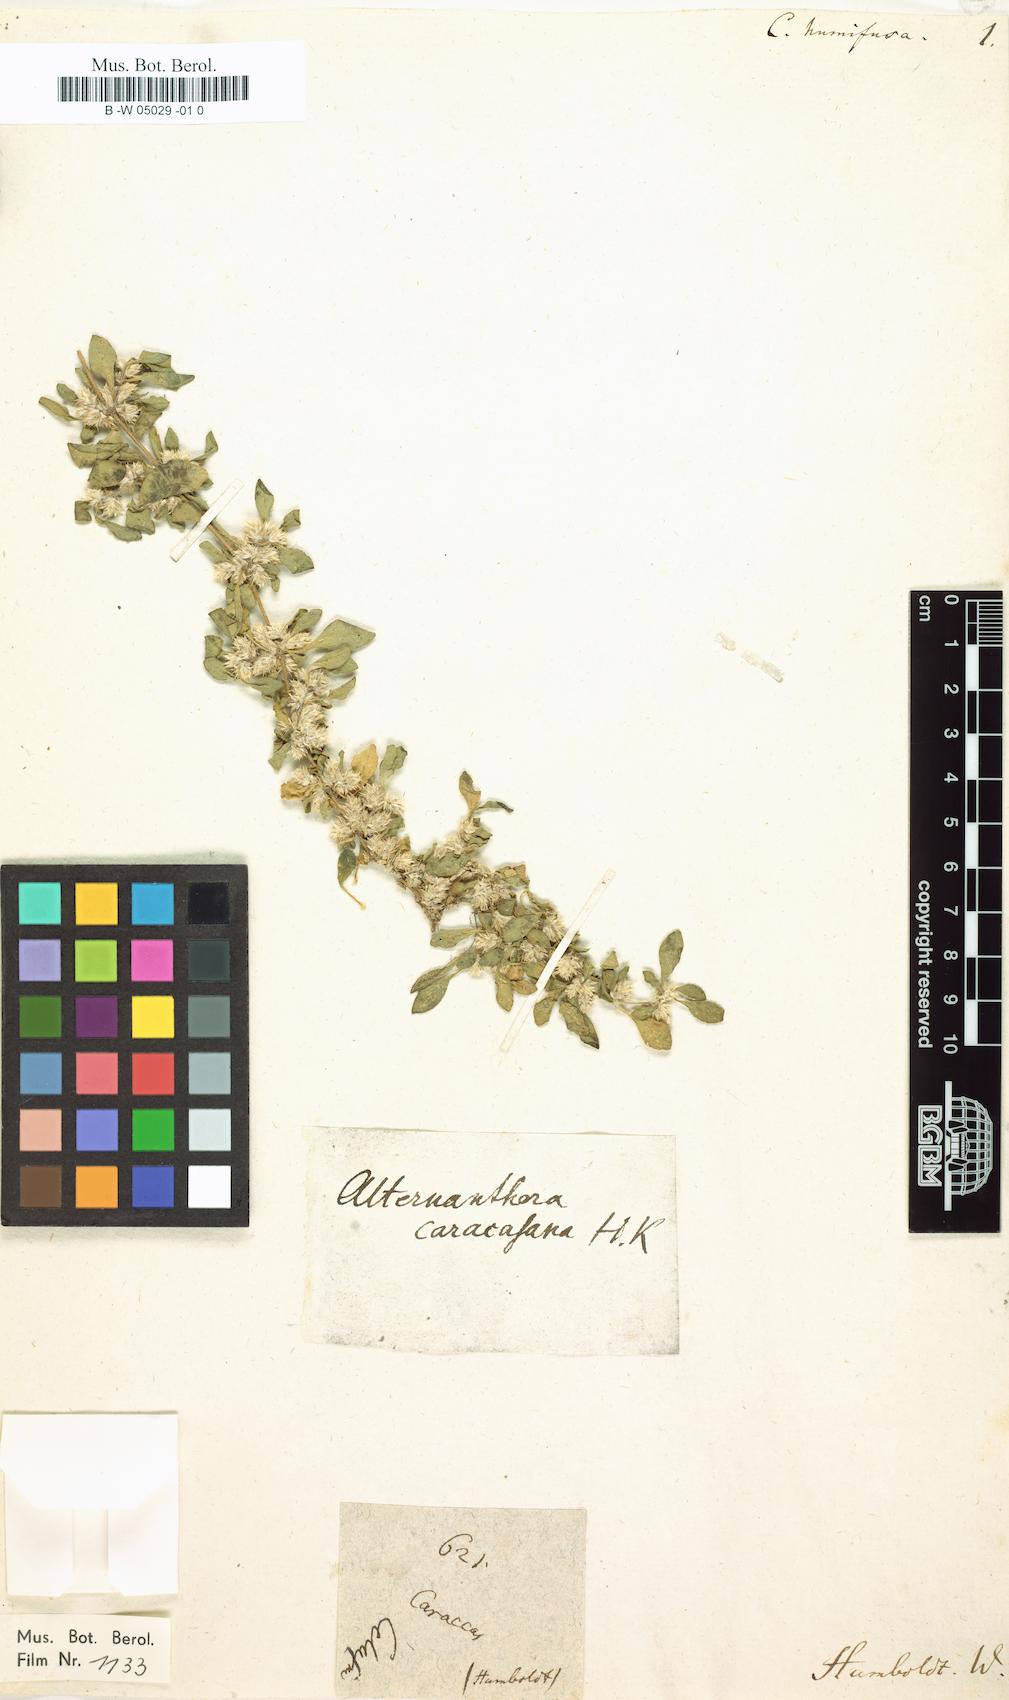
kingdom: Plantae
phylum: Tracheophyta
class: Magnoliopsida
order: Caryophyllales
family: Amaranthaceae
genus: Alternanthera
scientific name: Alternanthera caracasana
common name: Washerwoman
